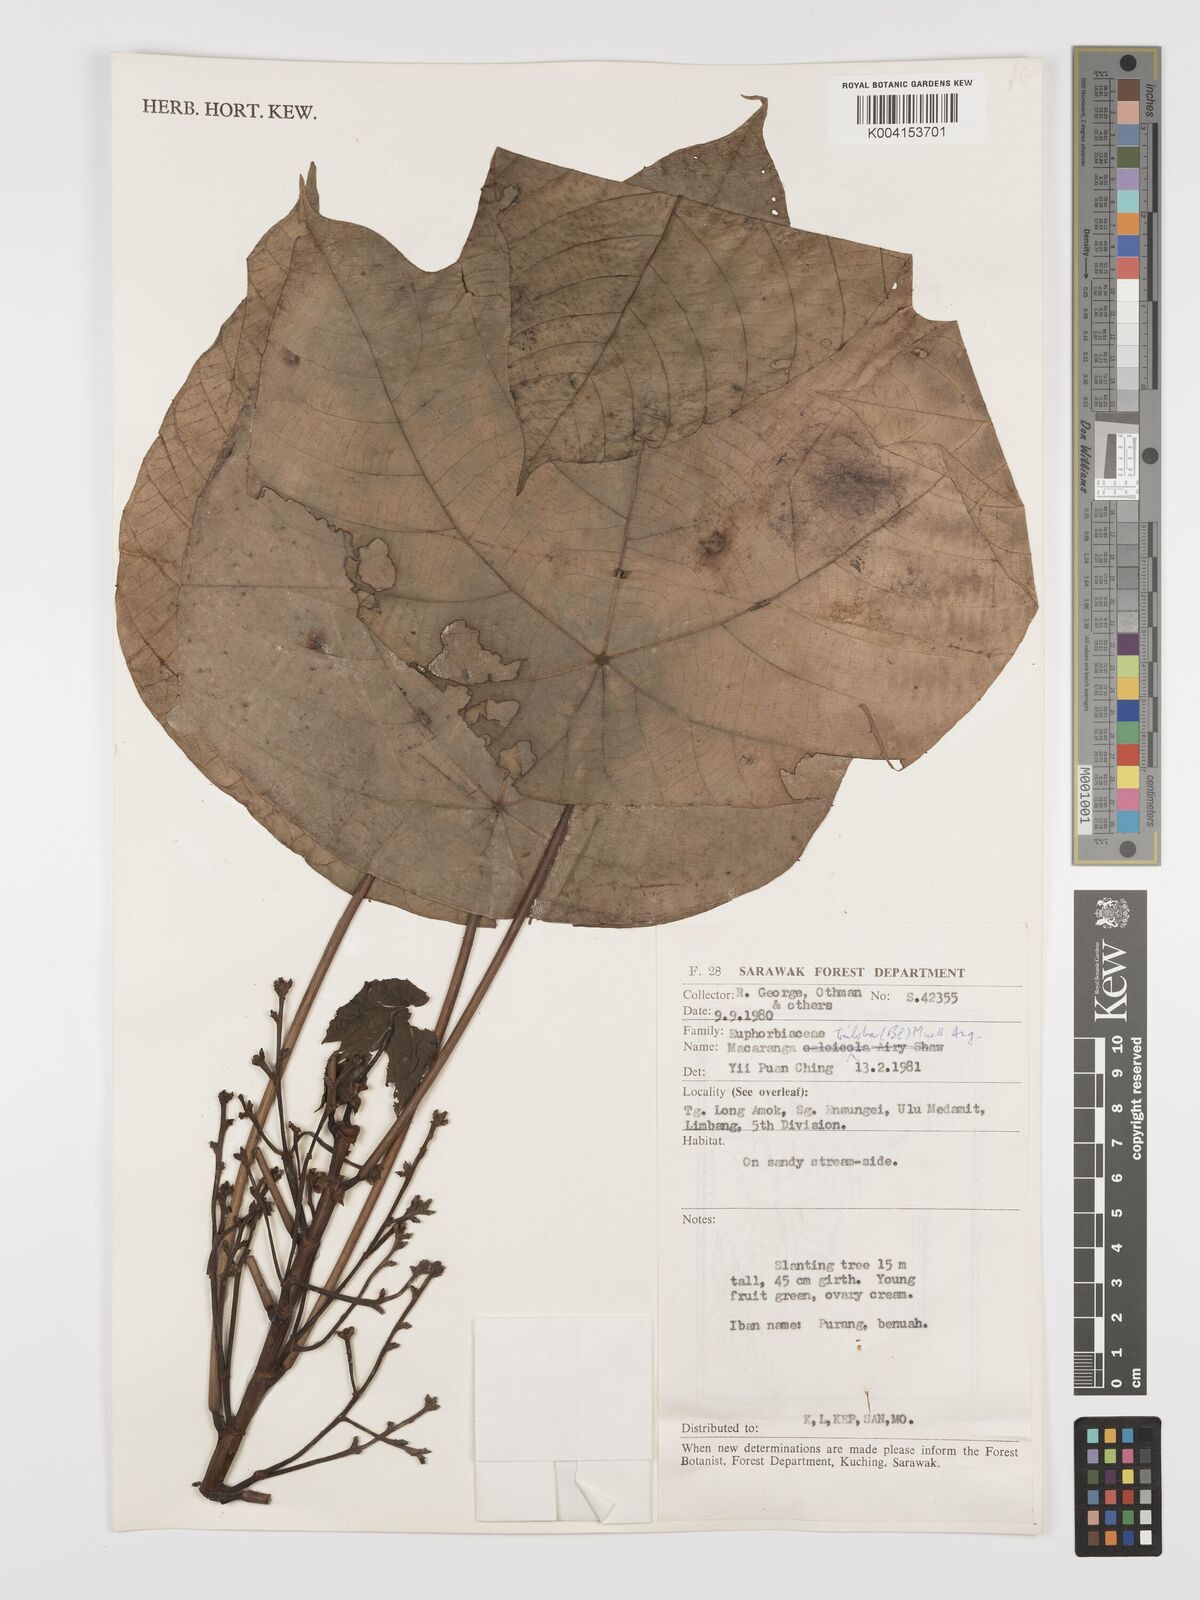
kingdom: Plantae
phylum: Tracheophyta
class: Magnoliopsida
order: Malpighiales
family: Euphorbiaceae
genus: Macaranga
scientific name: Macaranga triloba
